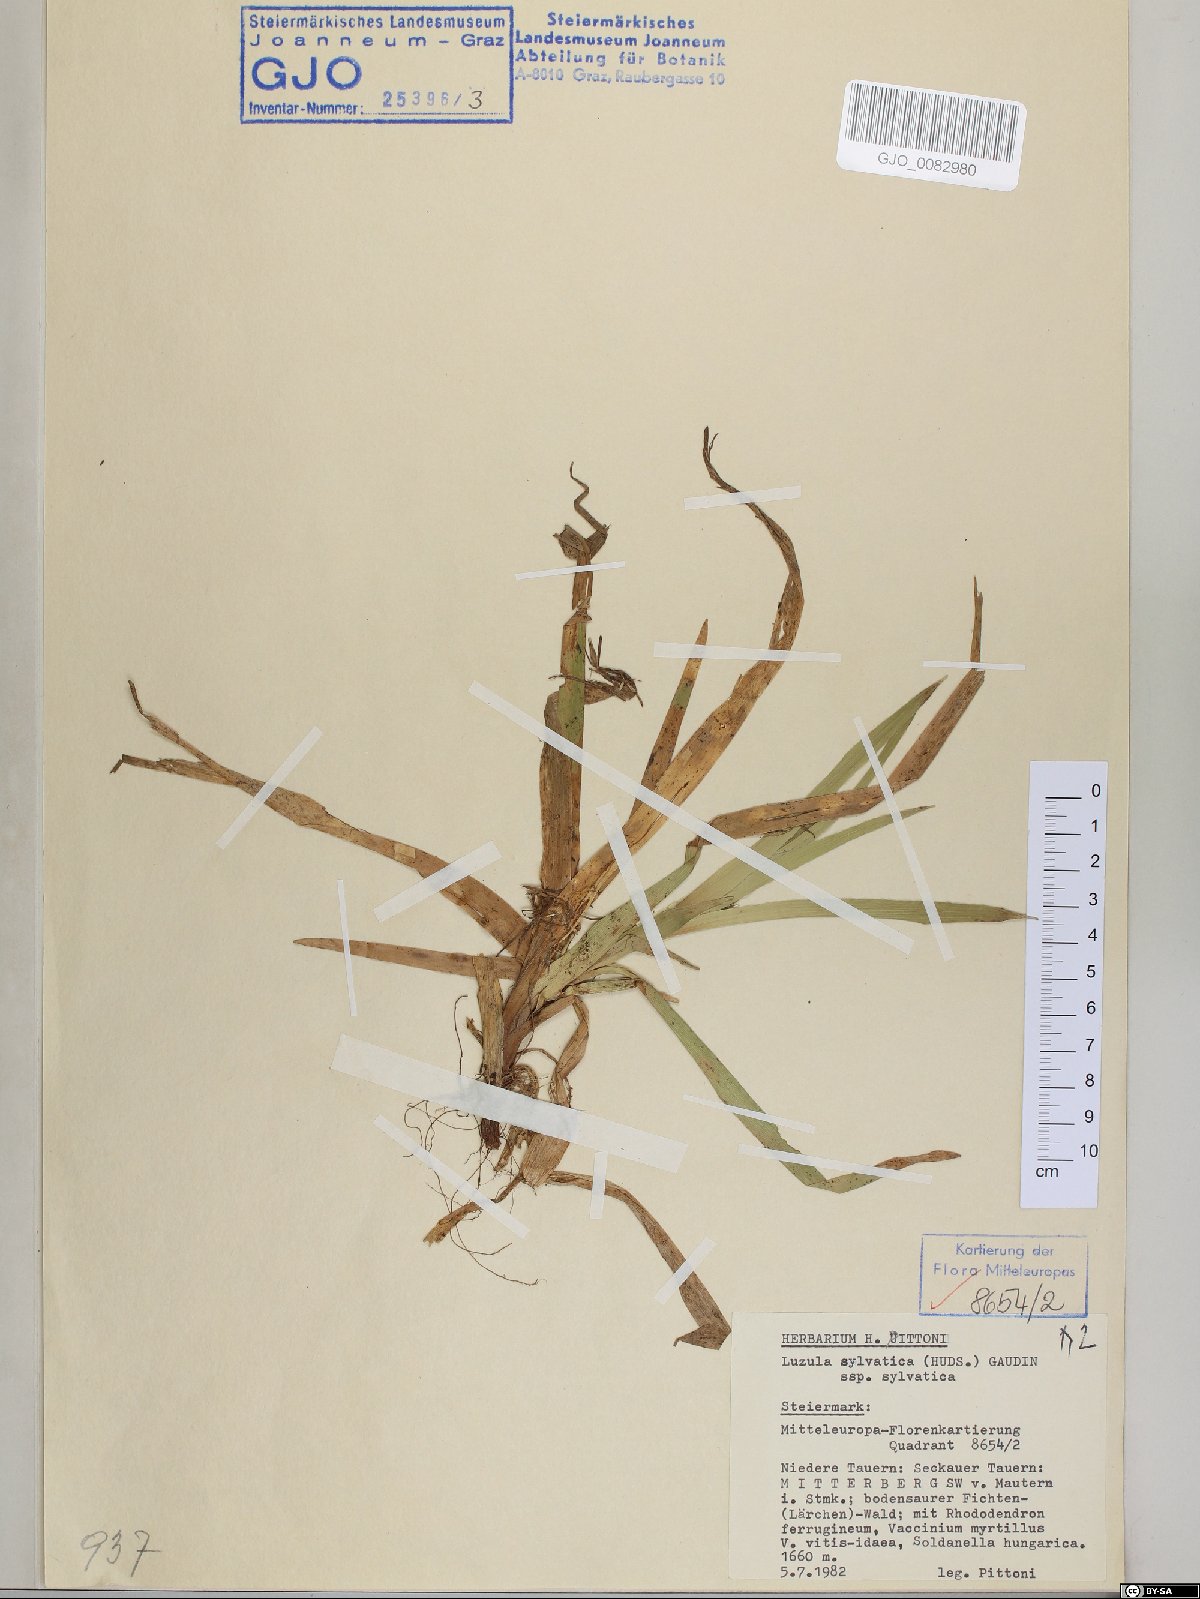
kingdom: Plantae
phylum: Tracheophyta
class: Liliopsida
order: Poales
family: Juncaceae
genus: Luzula
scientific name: Luzula sylvatica
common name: Great wood-rush
